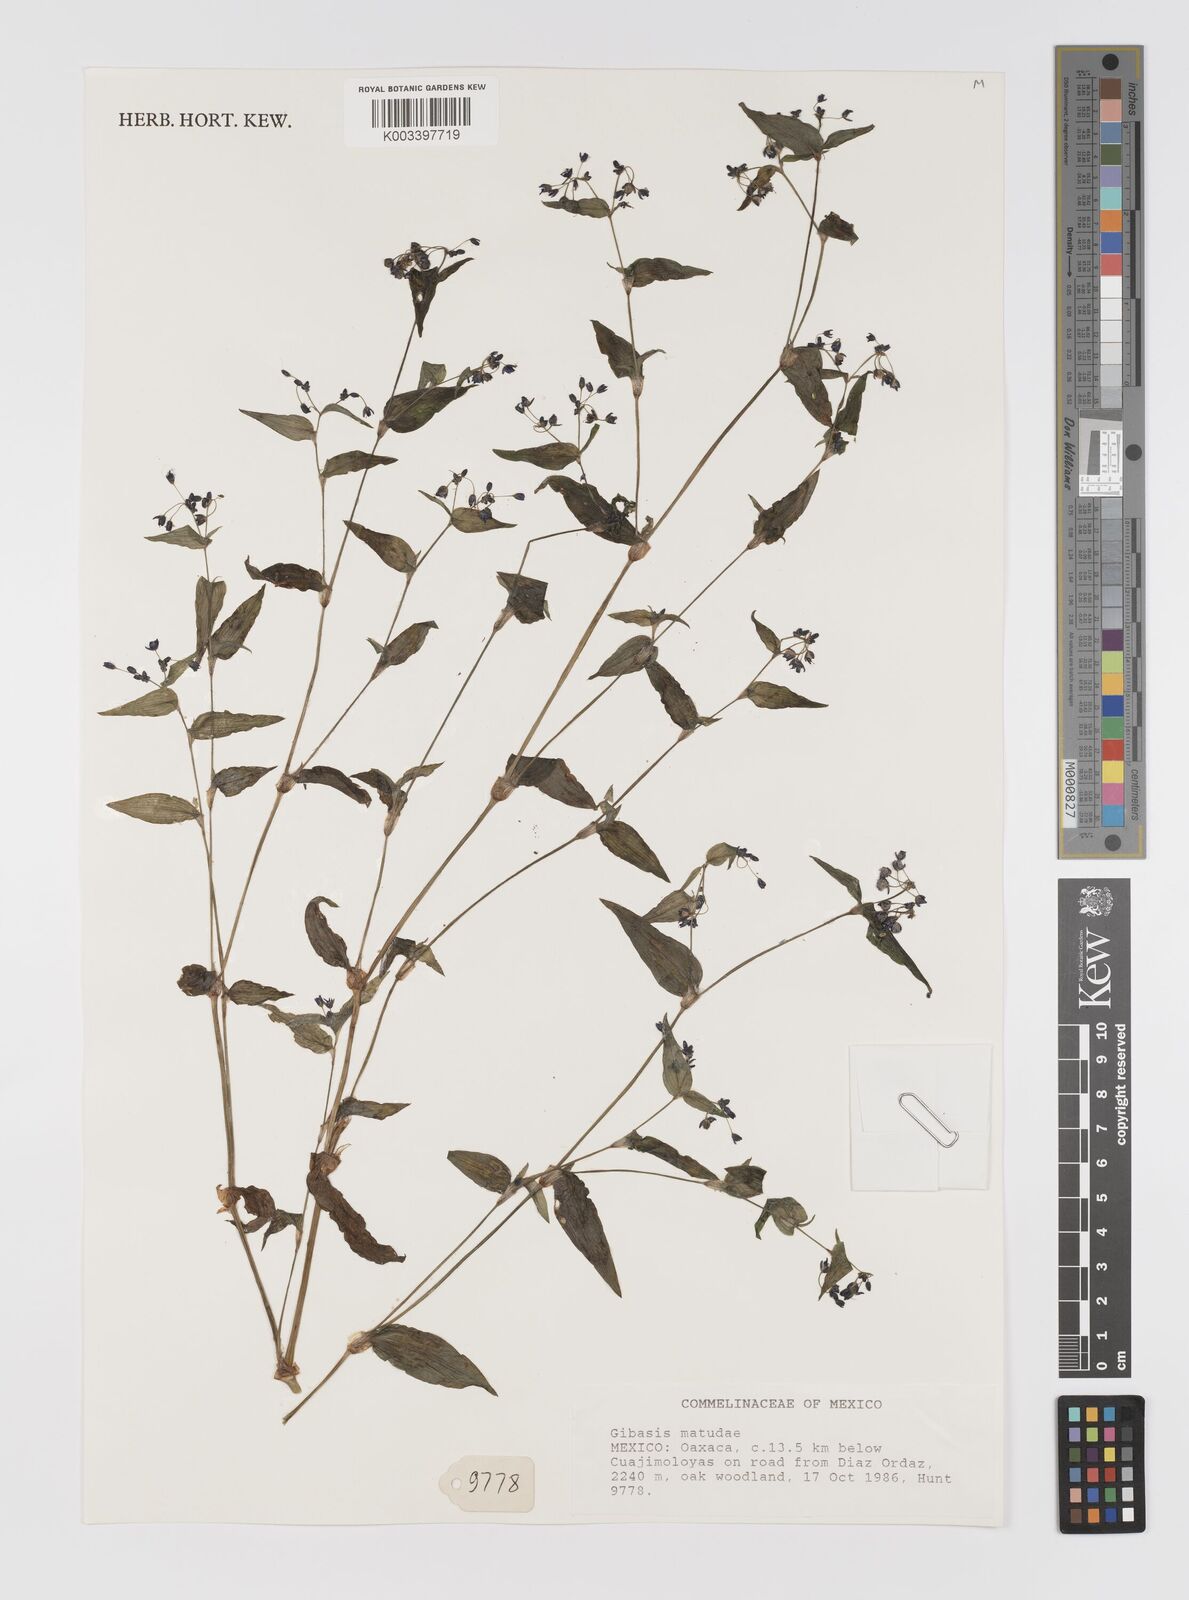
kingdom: Plantae
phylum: Tracheophyta
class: Liliopsida
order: Commelinales
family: Commelinaceae
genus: Gibasis
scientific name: Gibasis matudae
